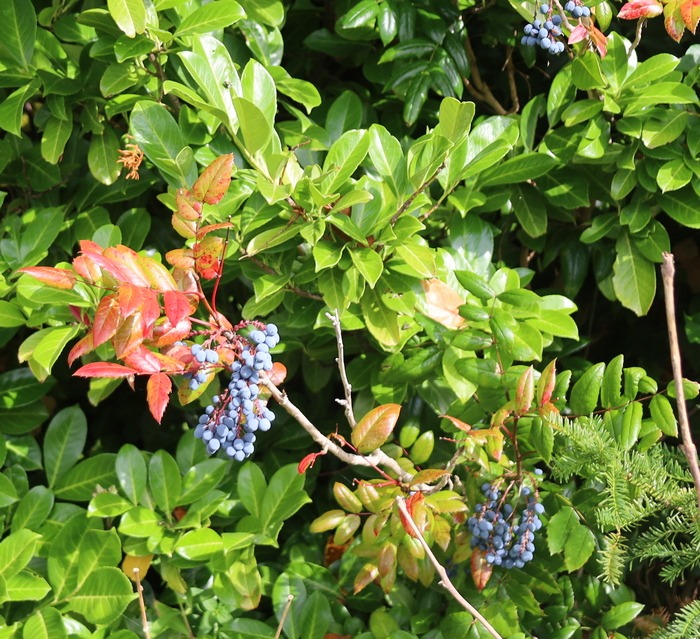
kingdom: Plantae
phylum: Tracheophyta
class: Magnoliopsida
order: Ranunculales
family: Berberidaceae
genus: Mahonia
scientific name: Mahonia aquifolium
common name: Almindelig mahonie
